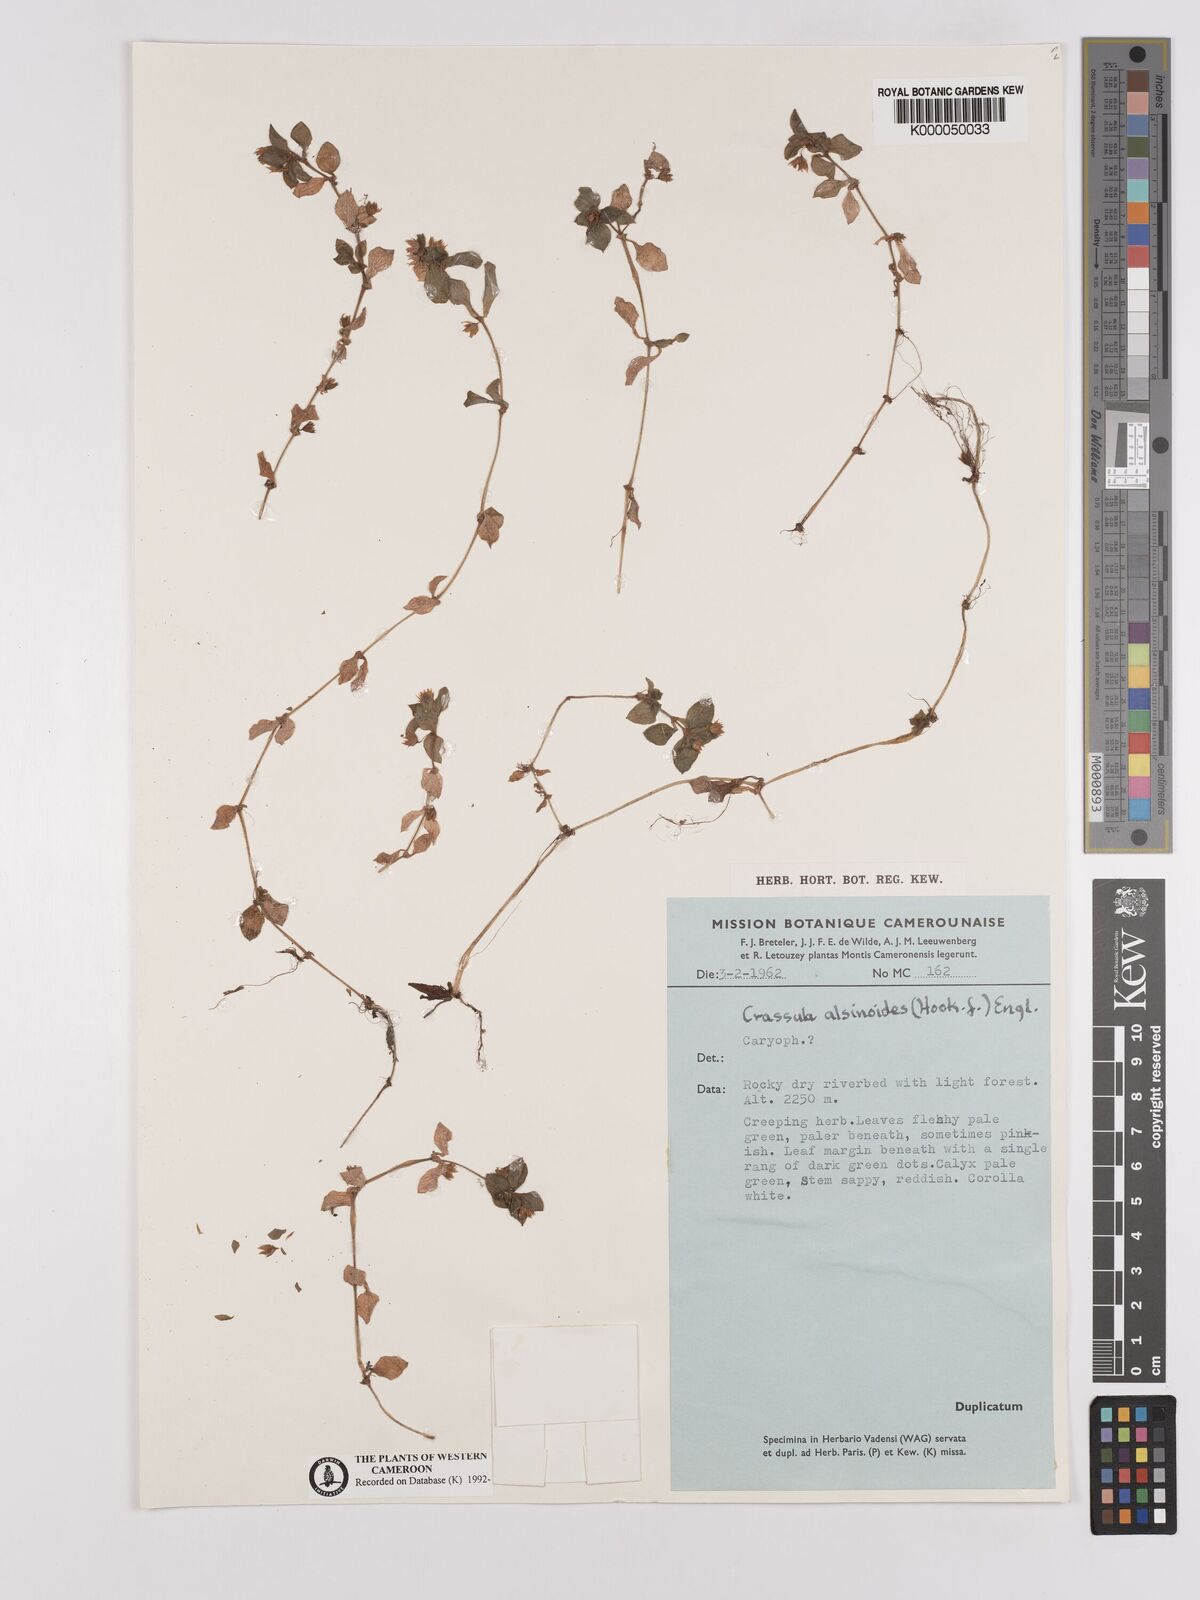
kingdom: Plantae
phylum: Tracheophyta
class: Magnoliopsida
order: Saxifragales
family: Crassulaceae
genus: Crassula
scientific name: Crassula alsinoides
